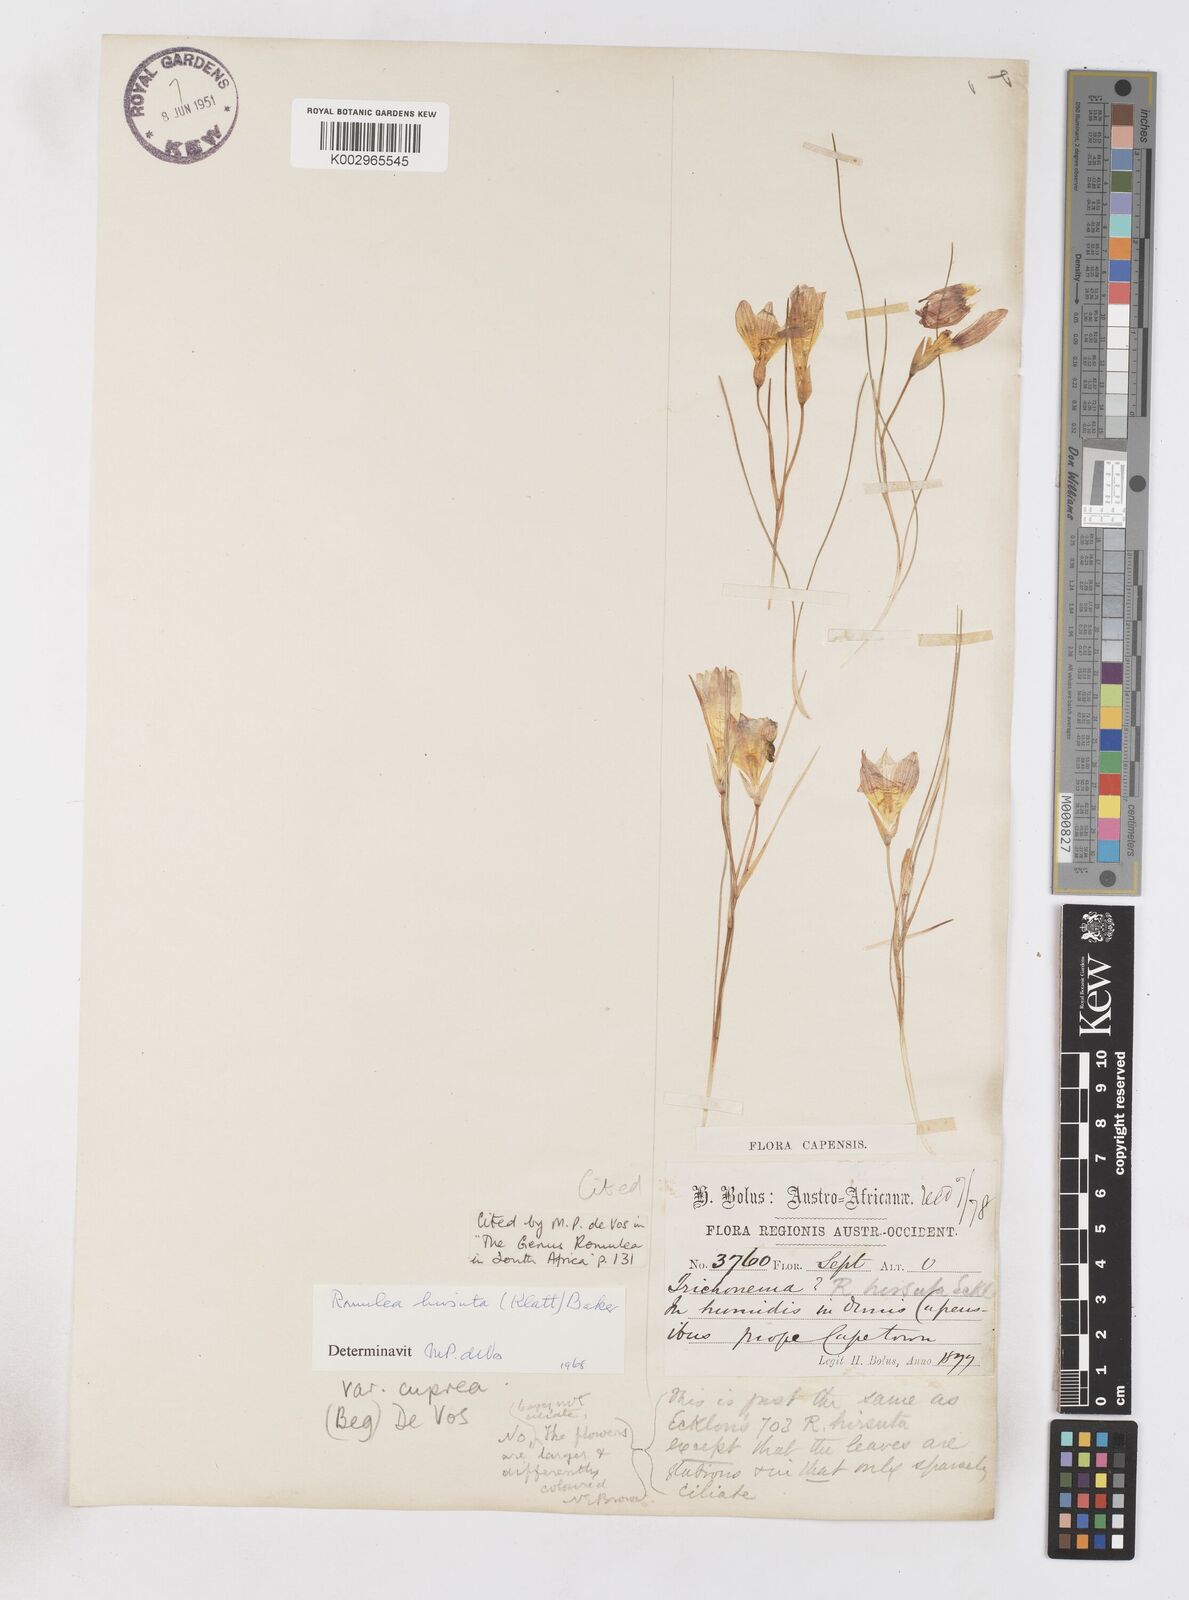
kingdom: Plantae
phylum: Tracheophyta
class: Liliopsida
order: Asparagales
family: Iridaceae
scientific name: Iridaceae
